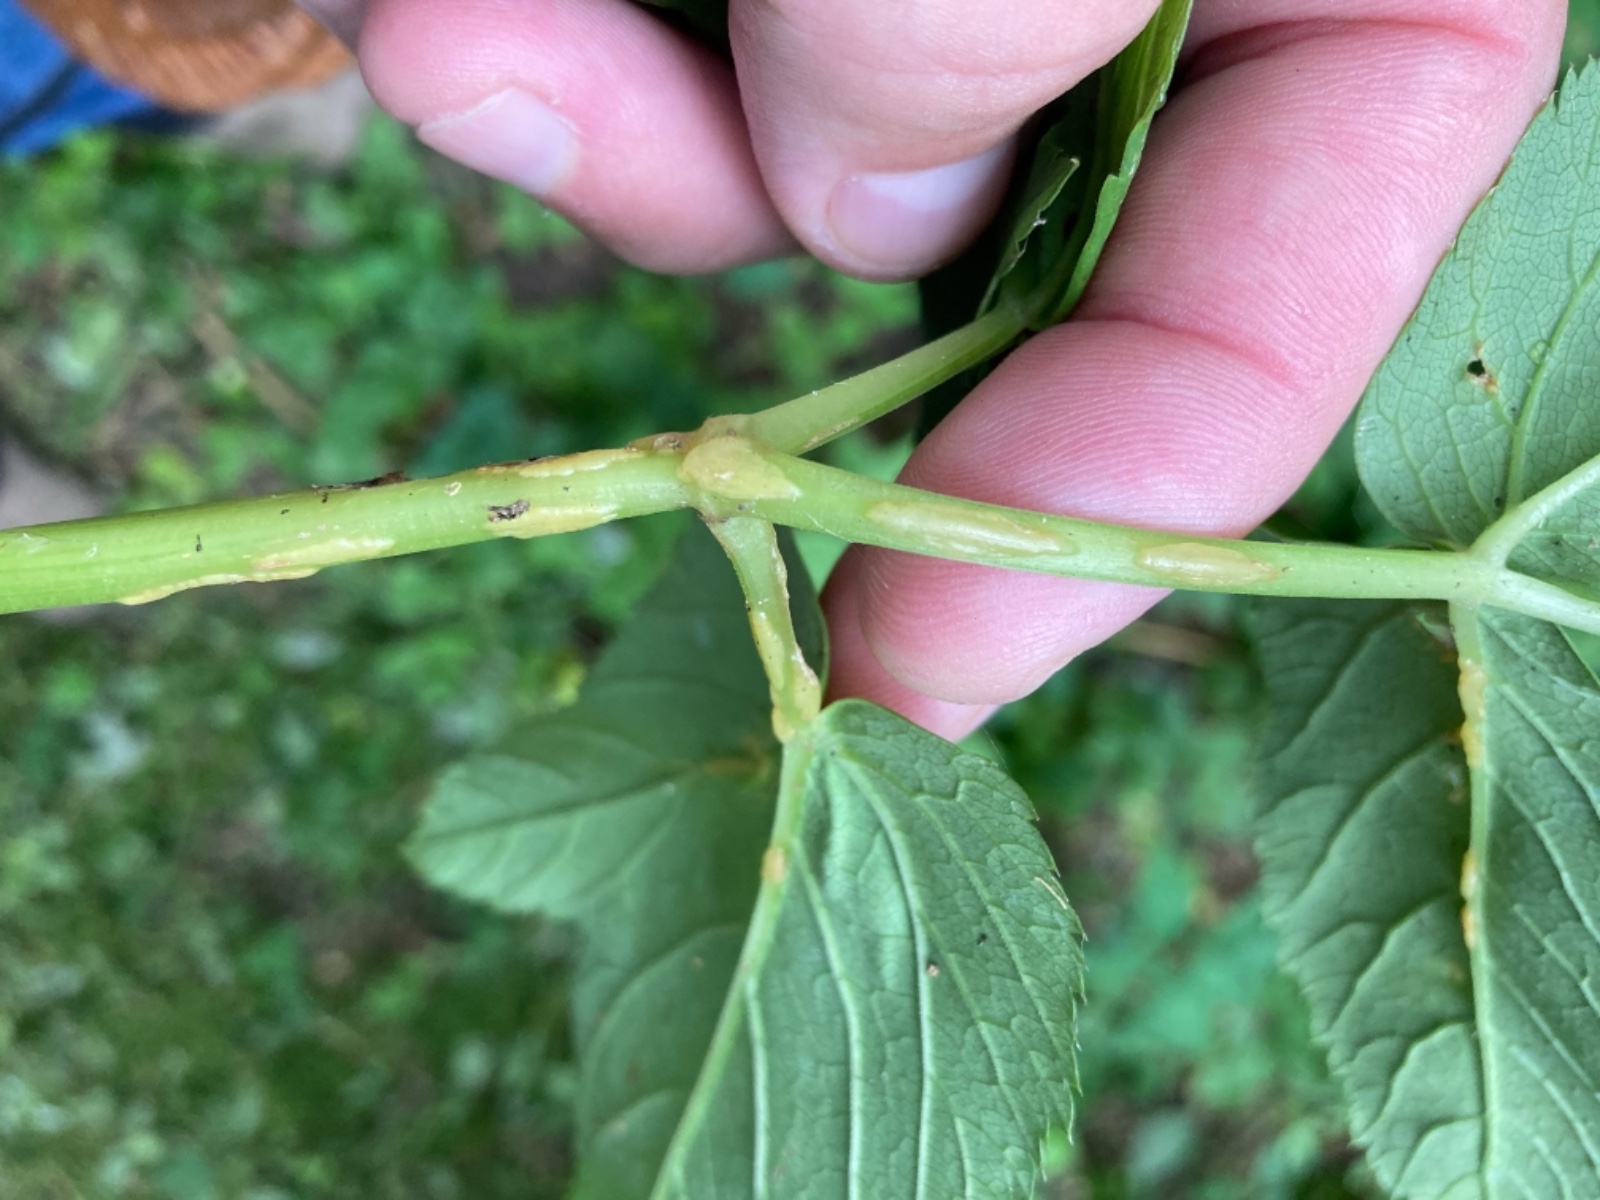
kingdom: Fungi
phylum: Ascomycota
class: Taphrinomycetes
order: Taphrinales
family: Taphrinaceae
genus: Protomyces
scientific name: Protomyces macrosporus
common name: skvalderkål-vablesæk
